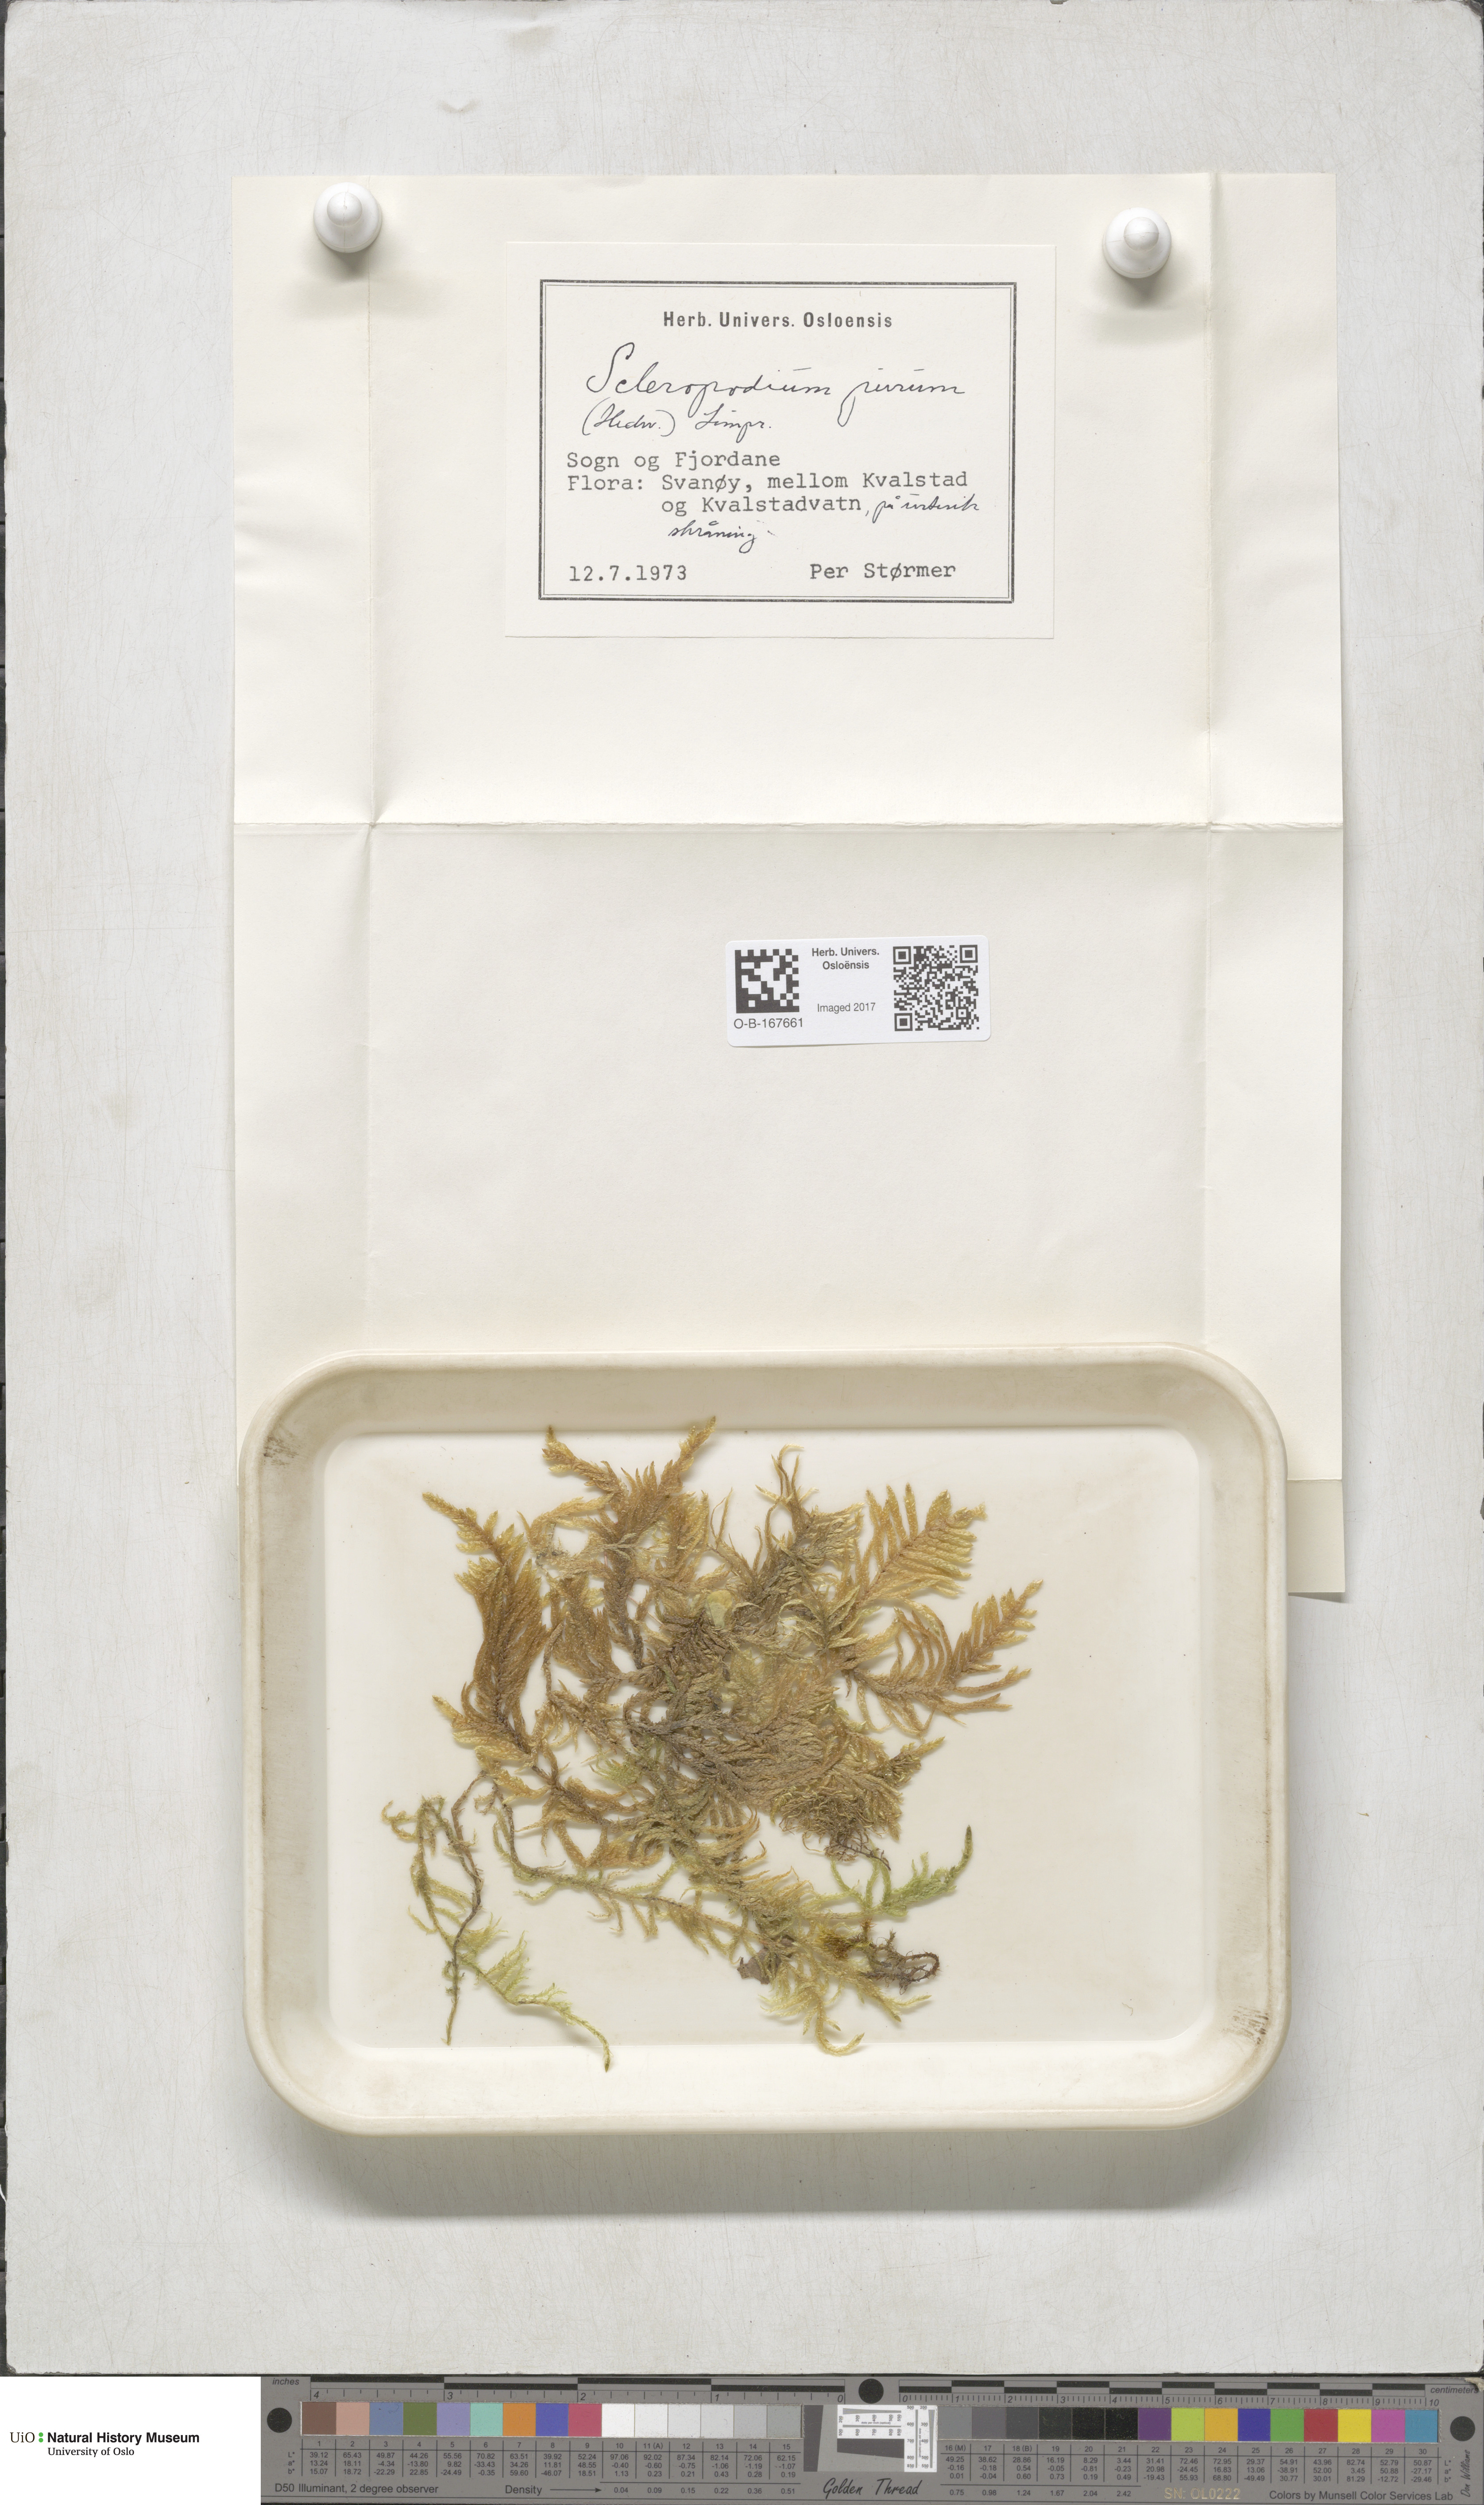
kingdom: Plantae
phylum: Bryophyta
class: Bryopsida
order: Hypnales
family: Brachytheciaceae
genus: Pseudoscleropodium
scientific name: Pseudoscleropodium purum
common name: Neat feather-moss
